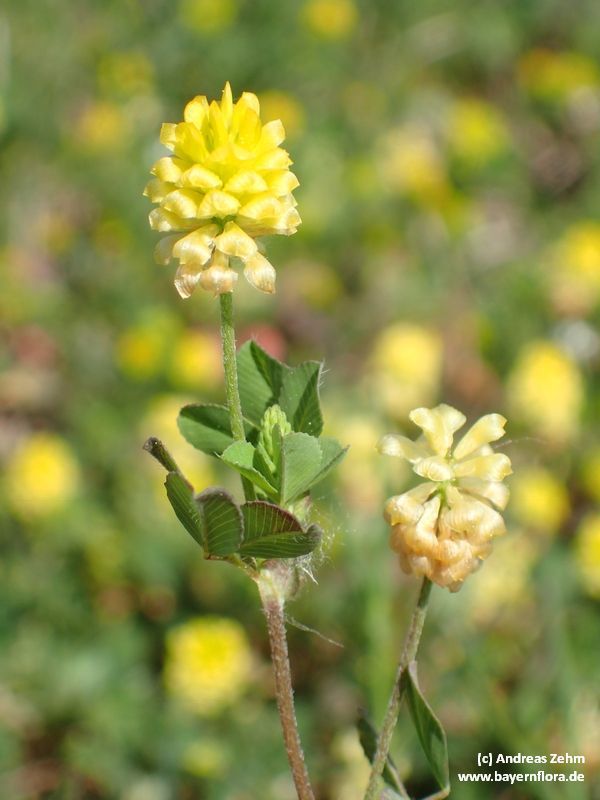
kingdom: Plantae
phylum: Tracheophyta
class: Magnoliopsida
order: Fabales
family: Fabaceae
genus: Trifolium
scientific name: Trifolium campestre
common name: Field clover
